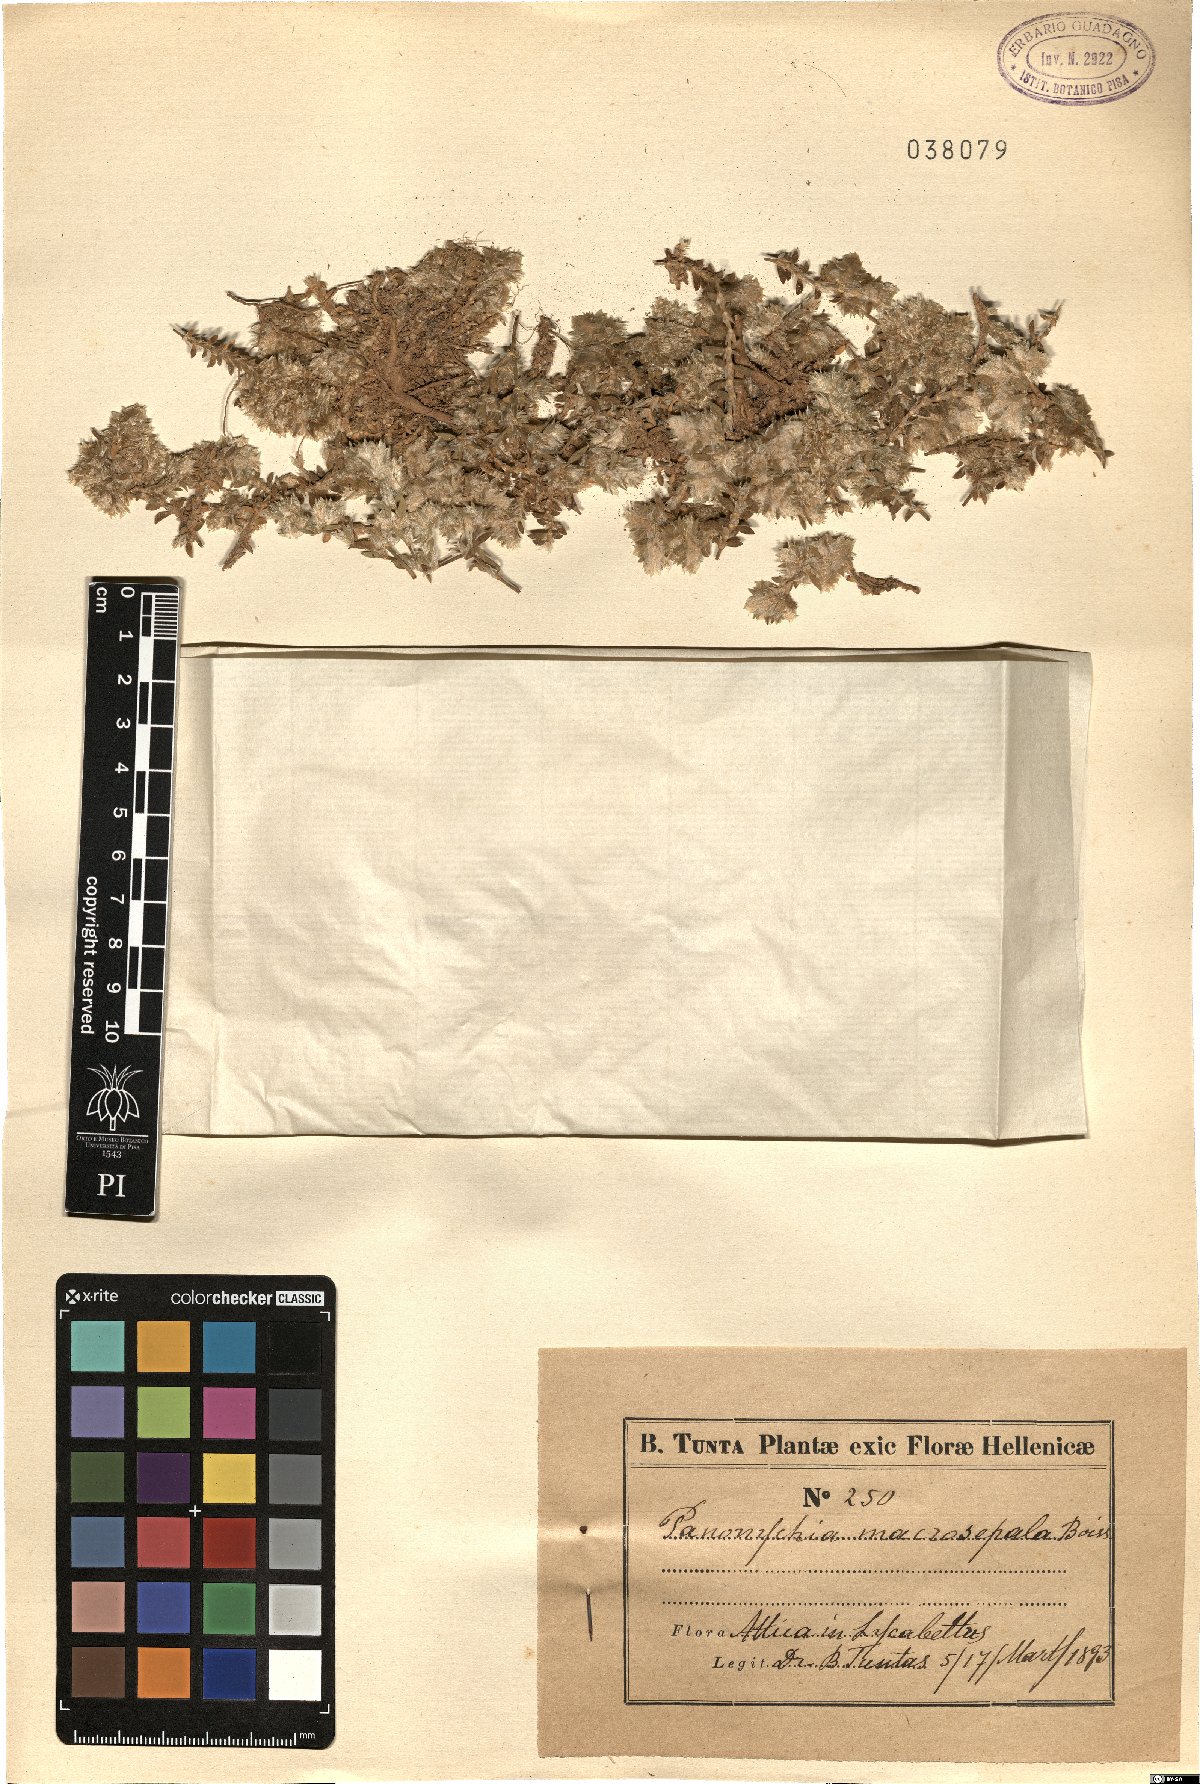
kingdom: Plantae
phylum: Tracheophyta
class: Magnoliopsida
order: Caryophyllales
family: Caryophyllaceae
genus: Paronychia
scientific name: Paronychia macrosepala
